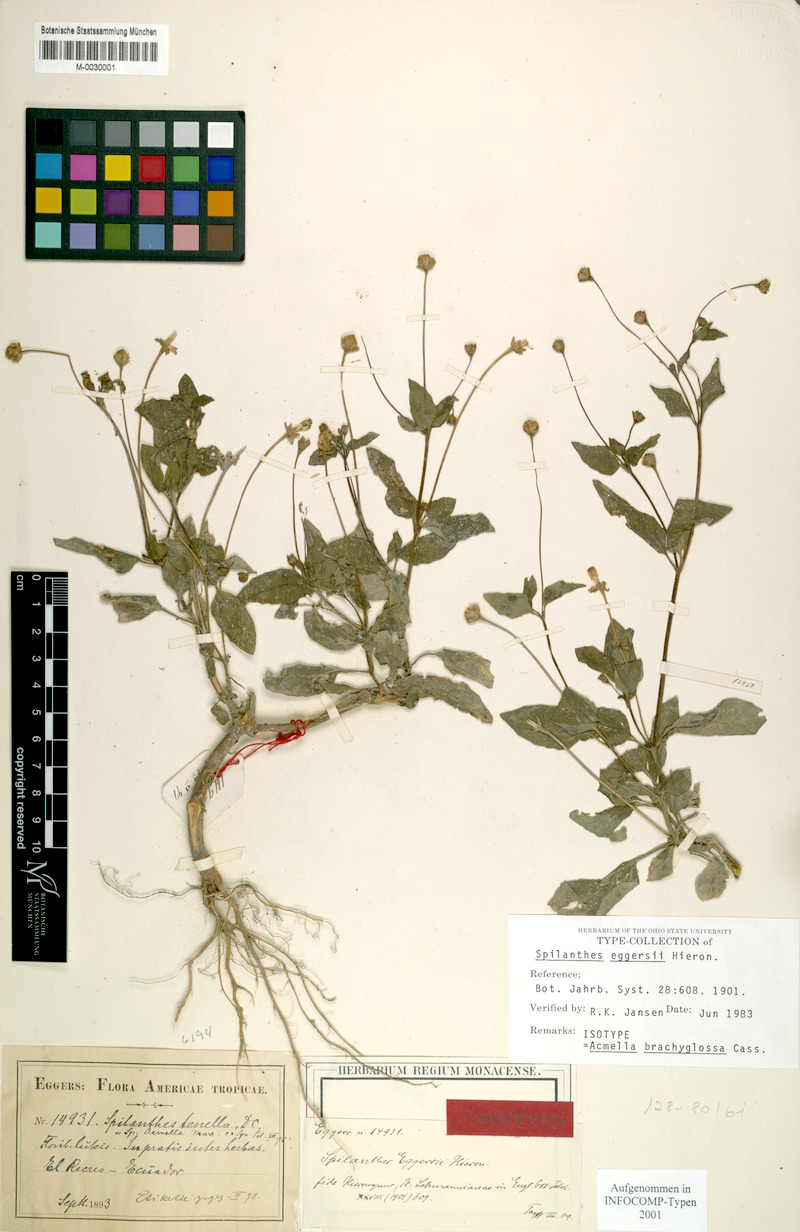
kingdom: Plantae
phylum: Tracheophyta
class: Magnoliopsida
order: Asterales
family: Asteraceae
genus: Acmella
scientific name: Acmella brachyglossa
